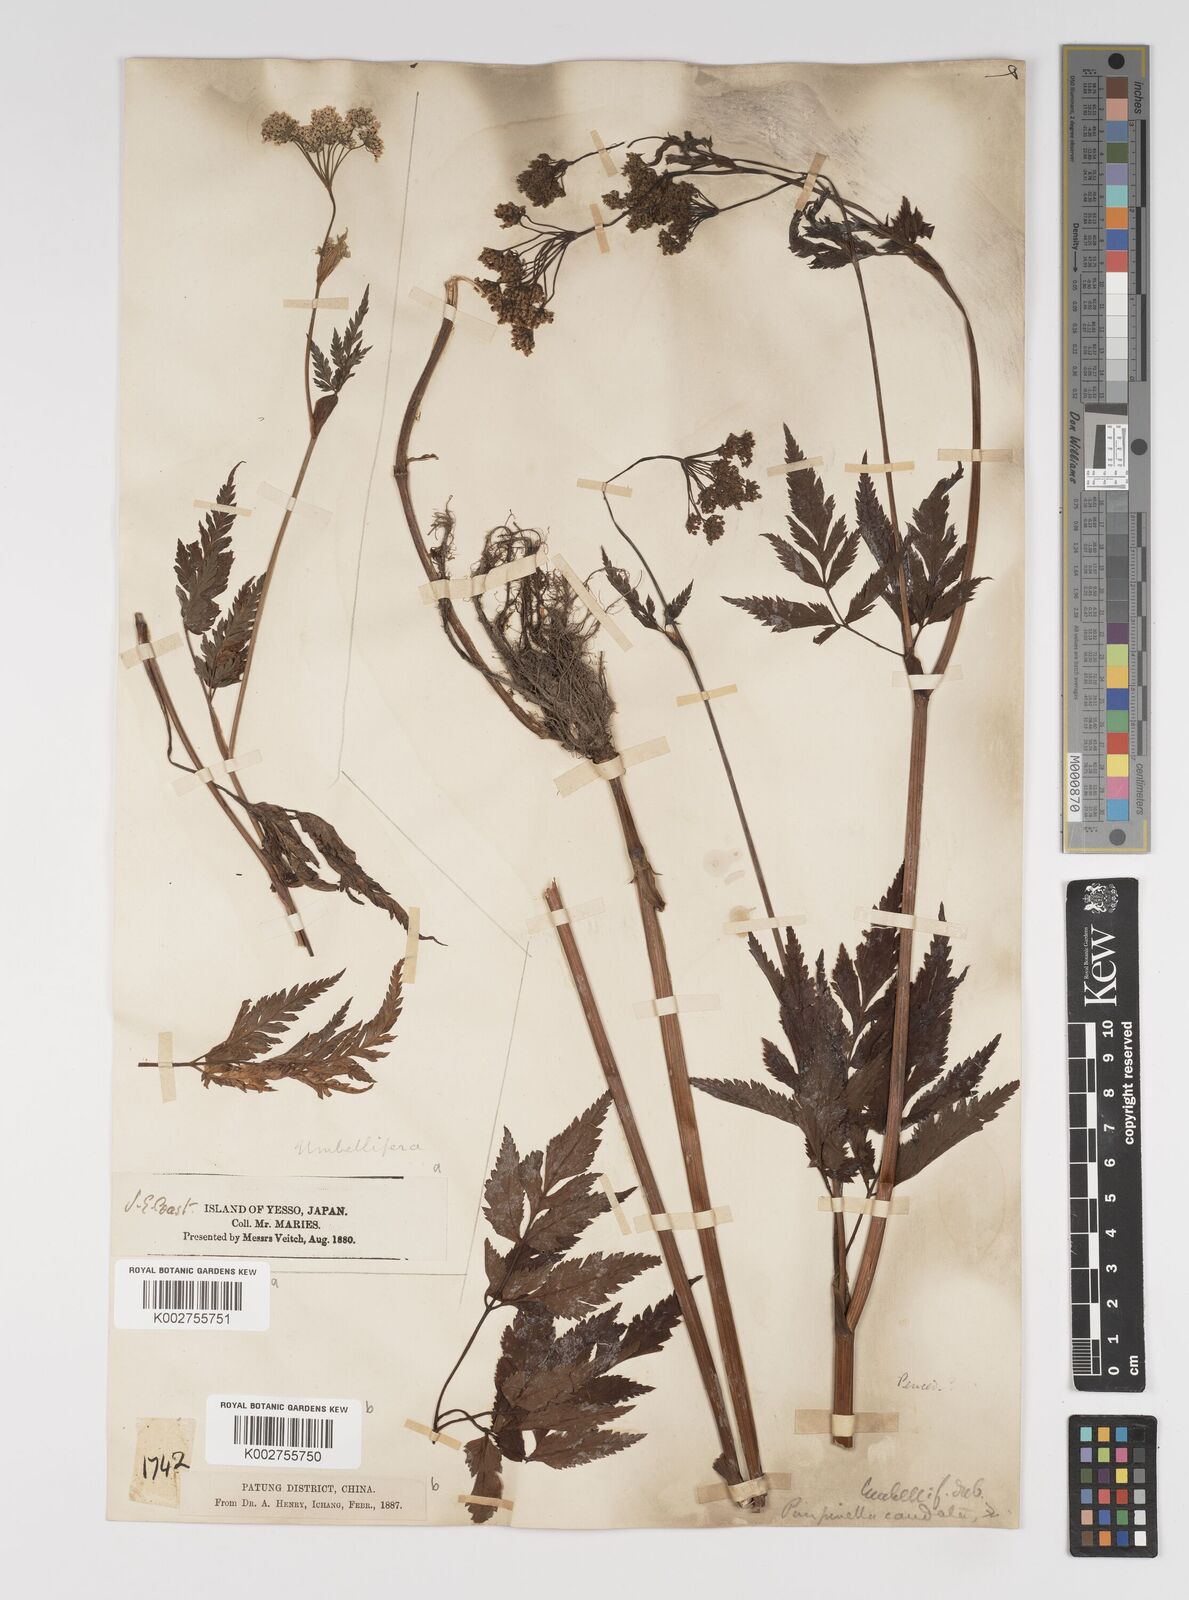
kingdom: Plantae
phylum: Tracheophyta
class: Magnoliopsida
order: Apiales
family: Apiaceae
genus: Pimpinella
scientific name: Pimpinella caudata
